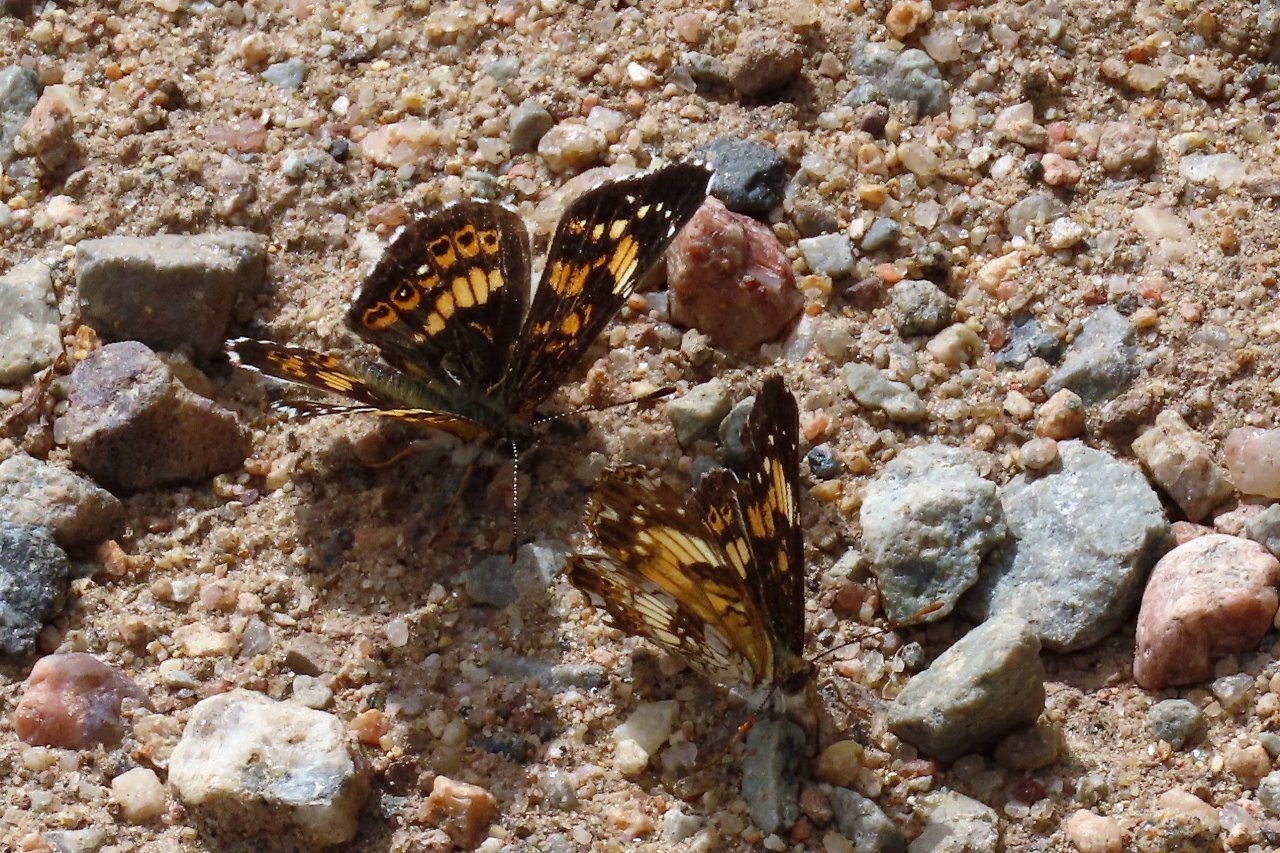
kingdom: Animalia
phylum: Arthropoda
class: Insecta
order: Lepidoptera
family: Nymphalidae
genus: Chlosyne
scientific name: Chlosyne nycteis
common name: Silvery Checkerspot
